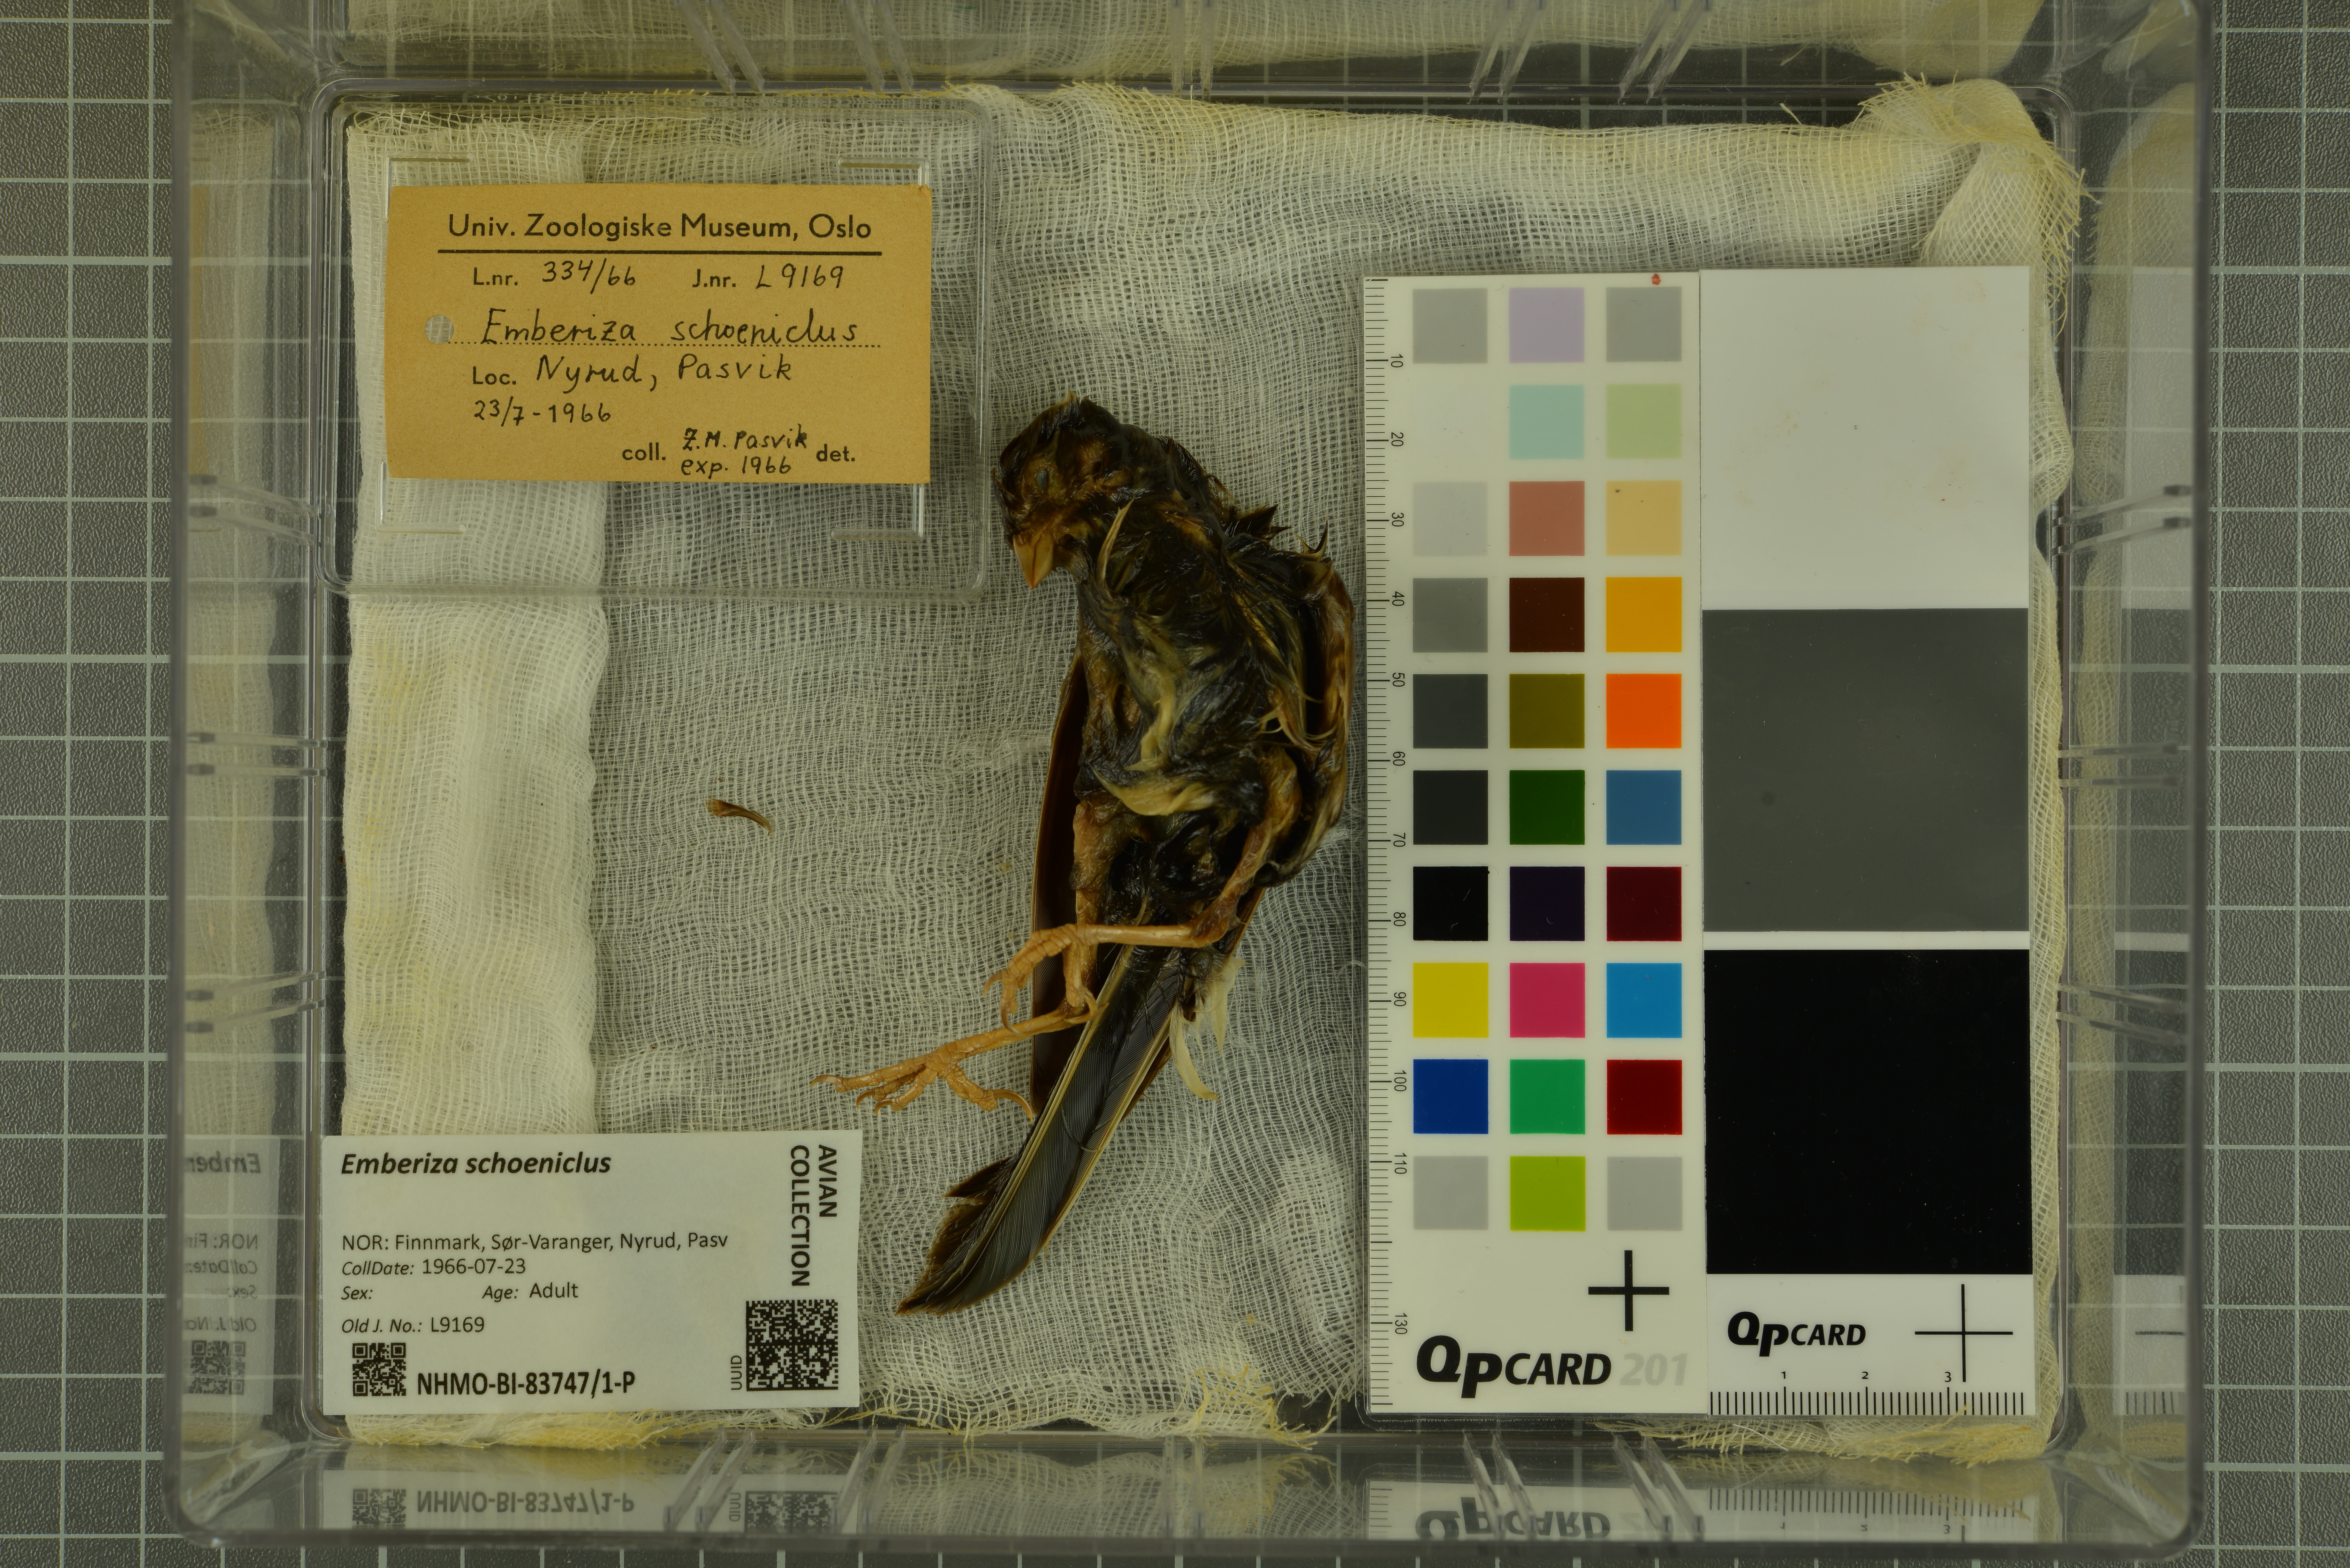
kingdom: Animalia
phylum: Chordata
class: Aves
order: Passeriformes
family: Emberizidae
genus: Emberiza
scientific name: Emberiza schoeniclus
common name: Reed bunting
